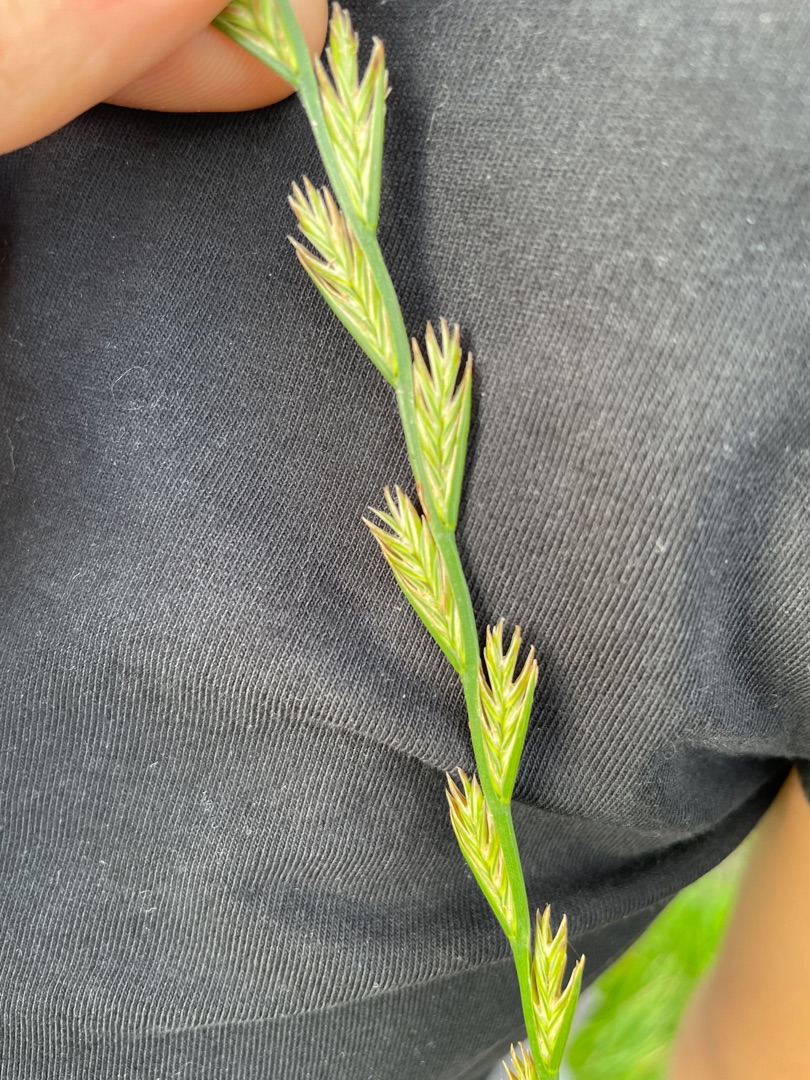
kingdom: Plantae
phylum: Tracheophyta
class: Liliopsida
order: Poales
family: Poaceae
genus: Lolium
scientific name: Lolium perenne
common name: Almindelig rajgræs
